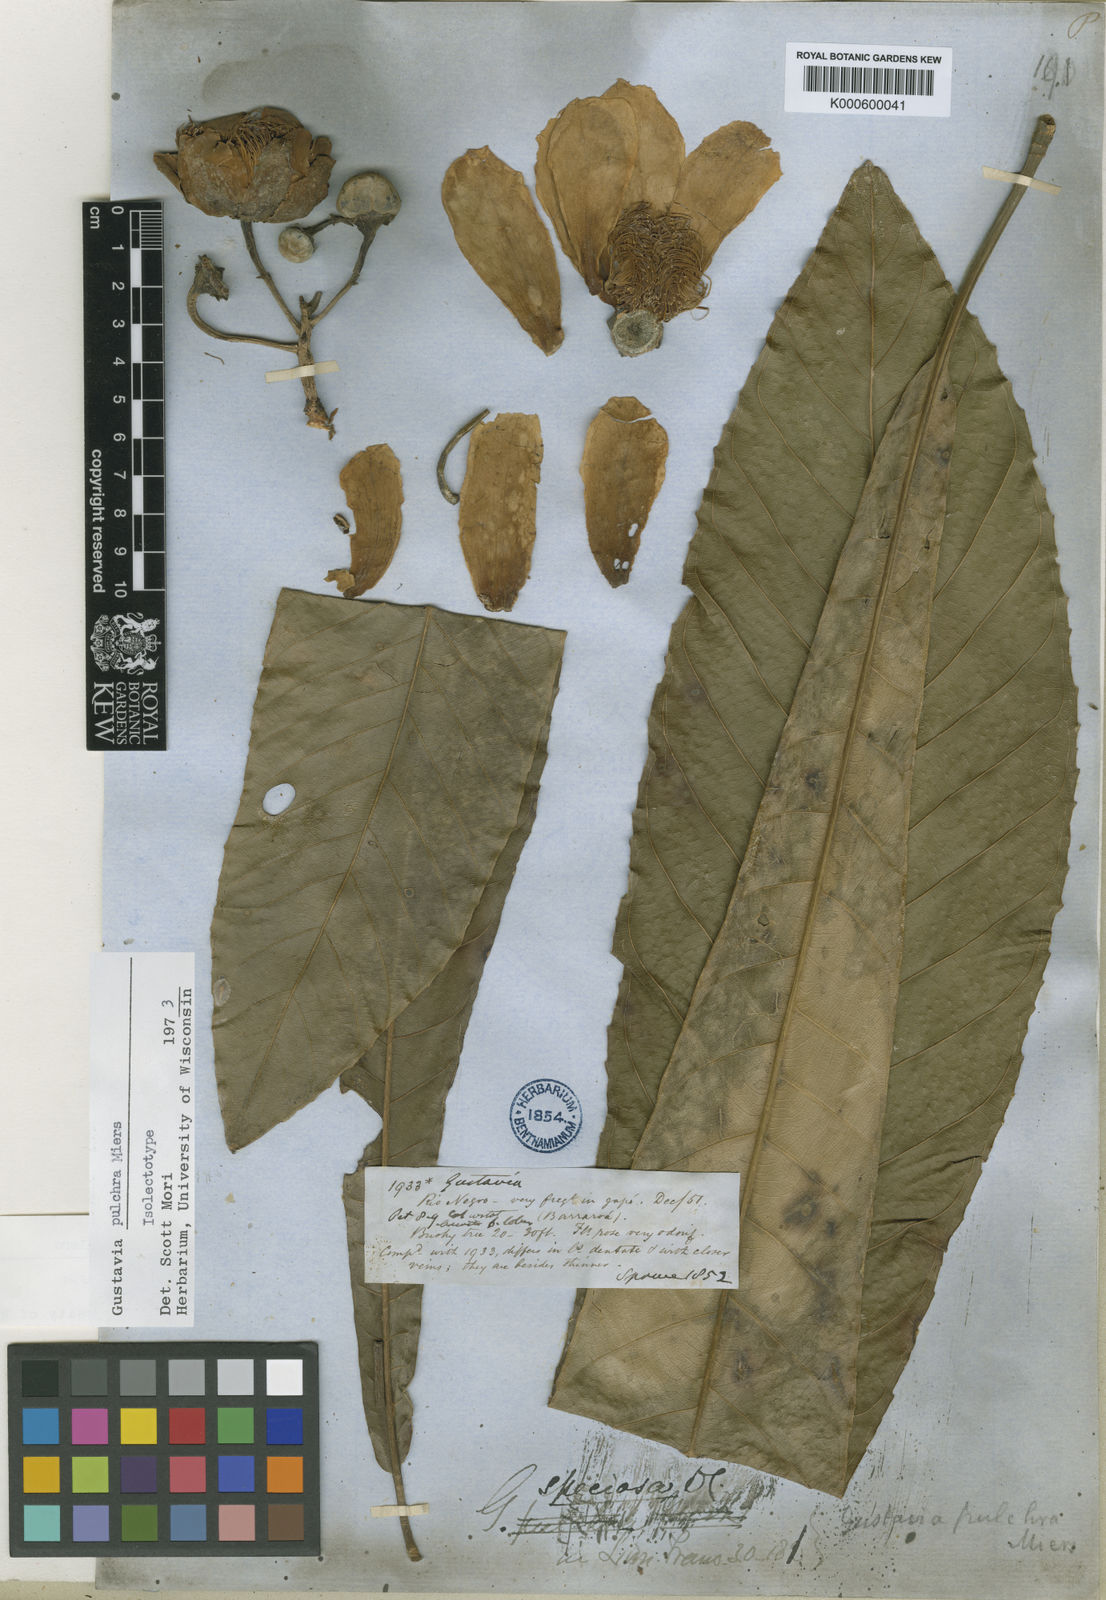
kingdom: Plantae
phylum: Tracheophyta
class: Magnoliopsida
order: Ericales
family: Lecythidaceae
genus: Gustavia
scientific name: Gustavia pulchra
